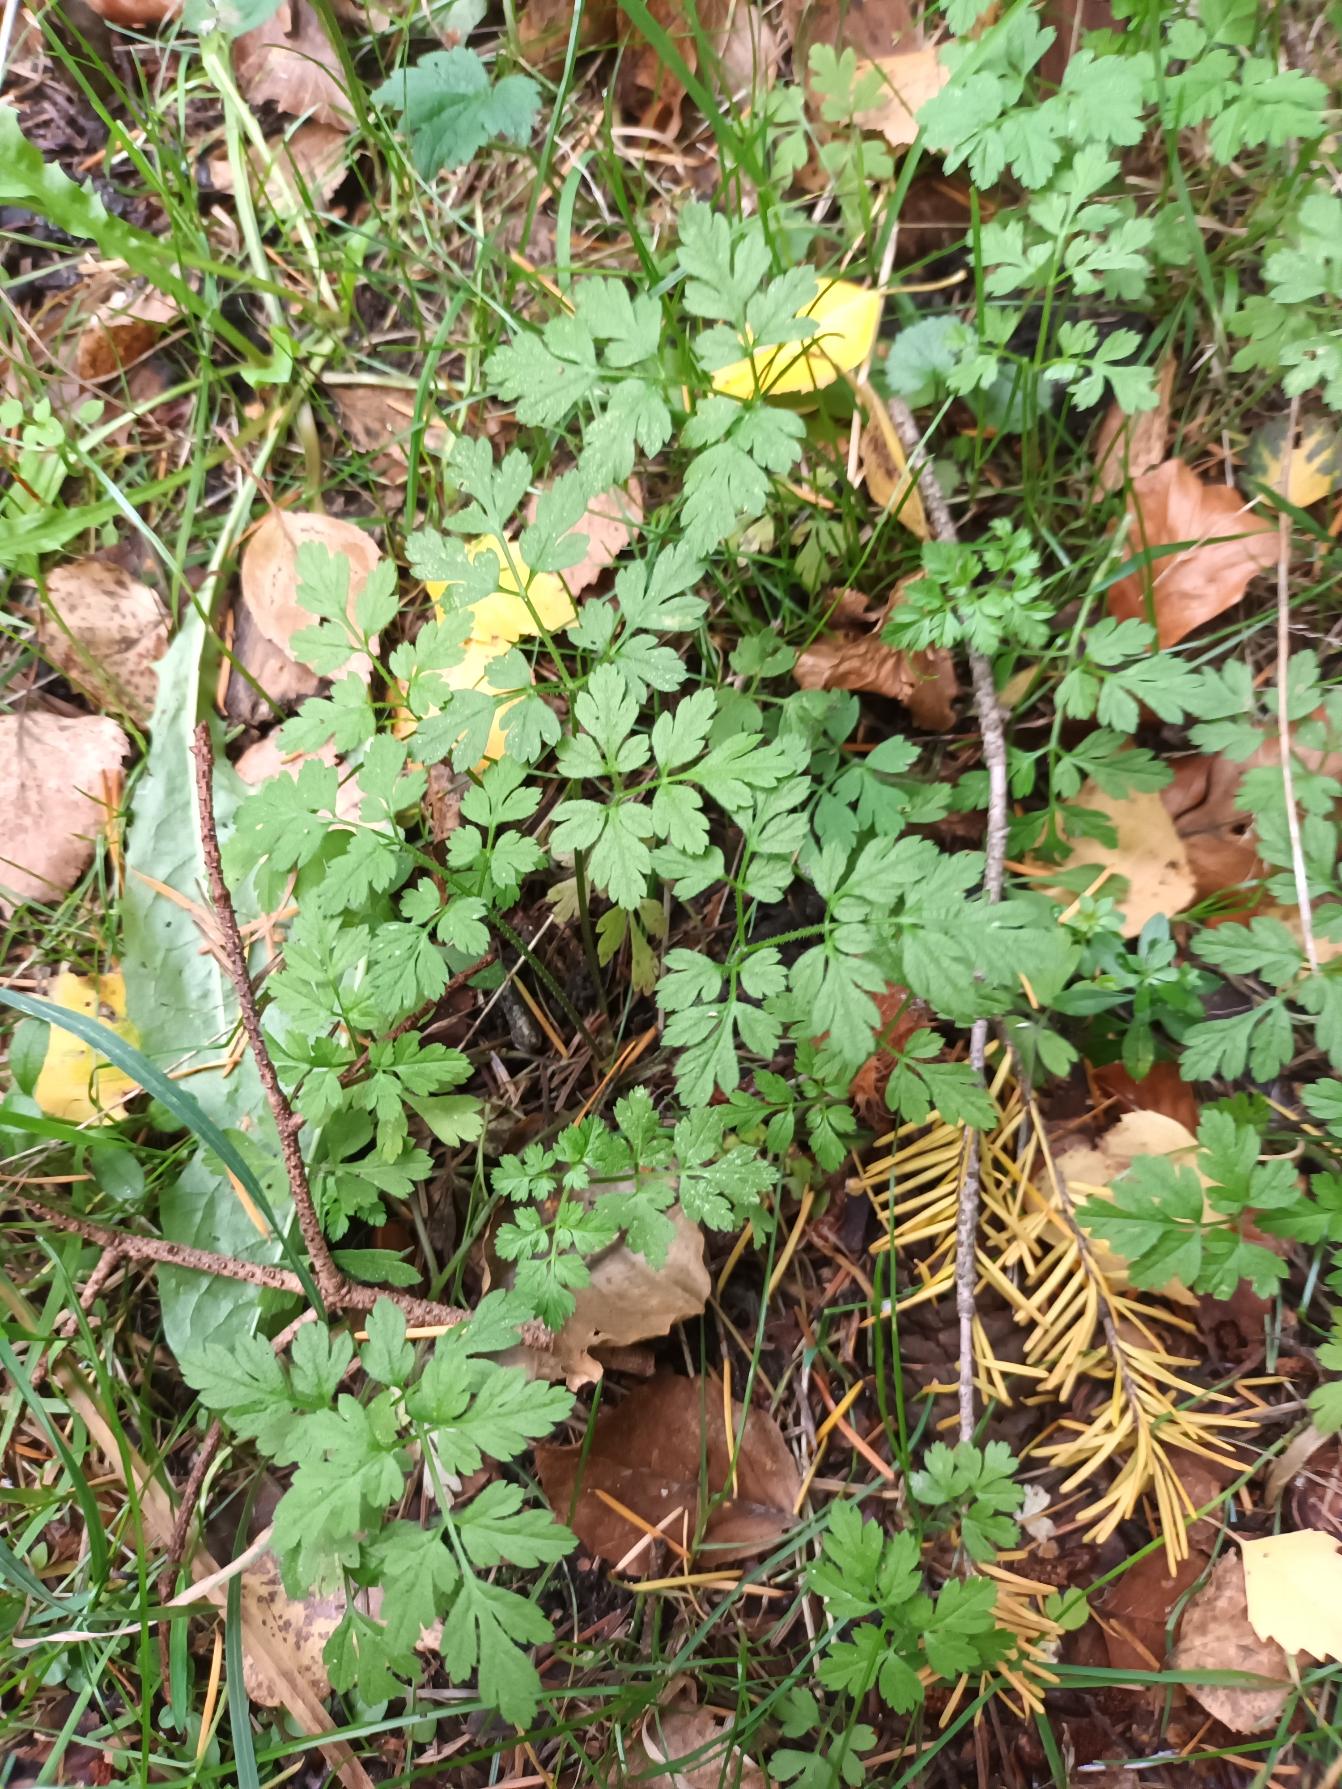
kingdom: Plantae
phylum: Tracheophyta
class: Magnoliopsida
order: Apiales
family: Apiaceae
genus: Chaerophyllum
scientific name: Chaerophyllum temulum
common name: Almindelig hulsvøb
